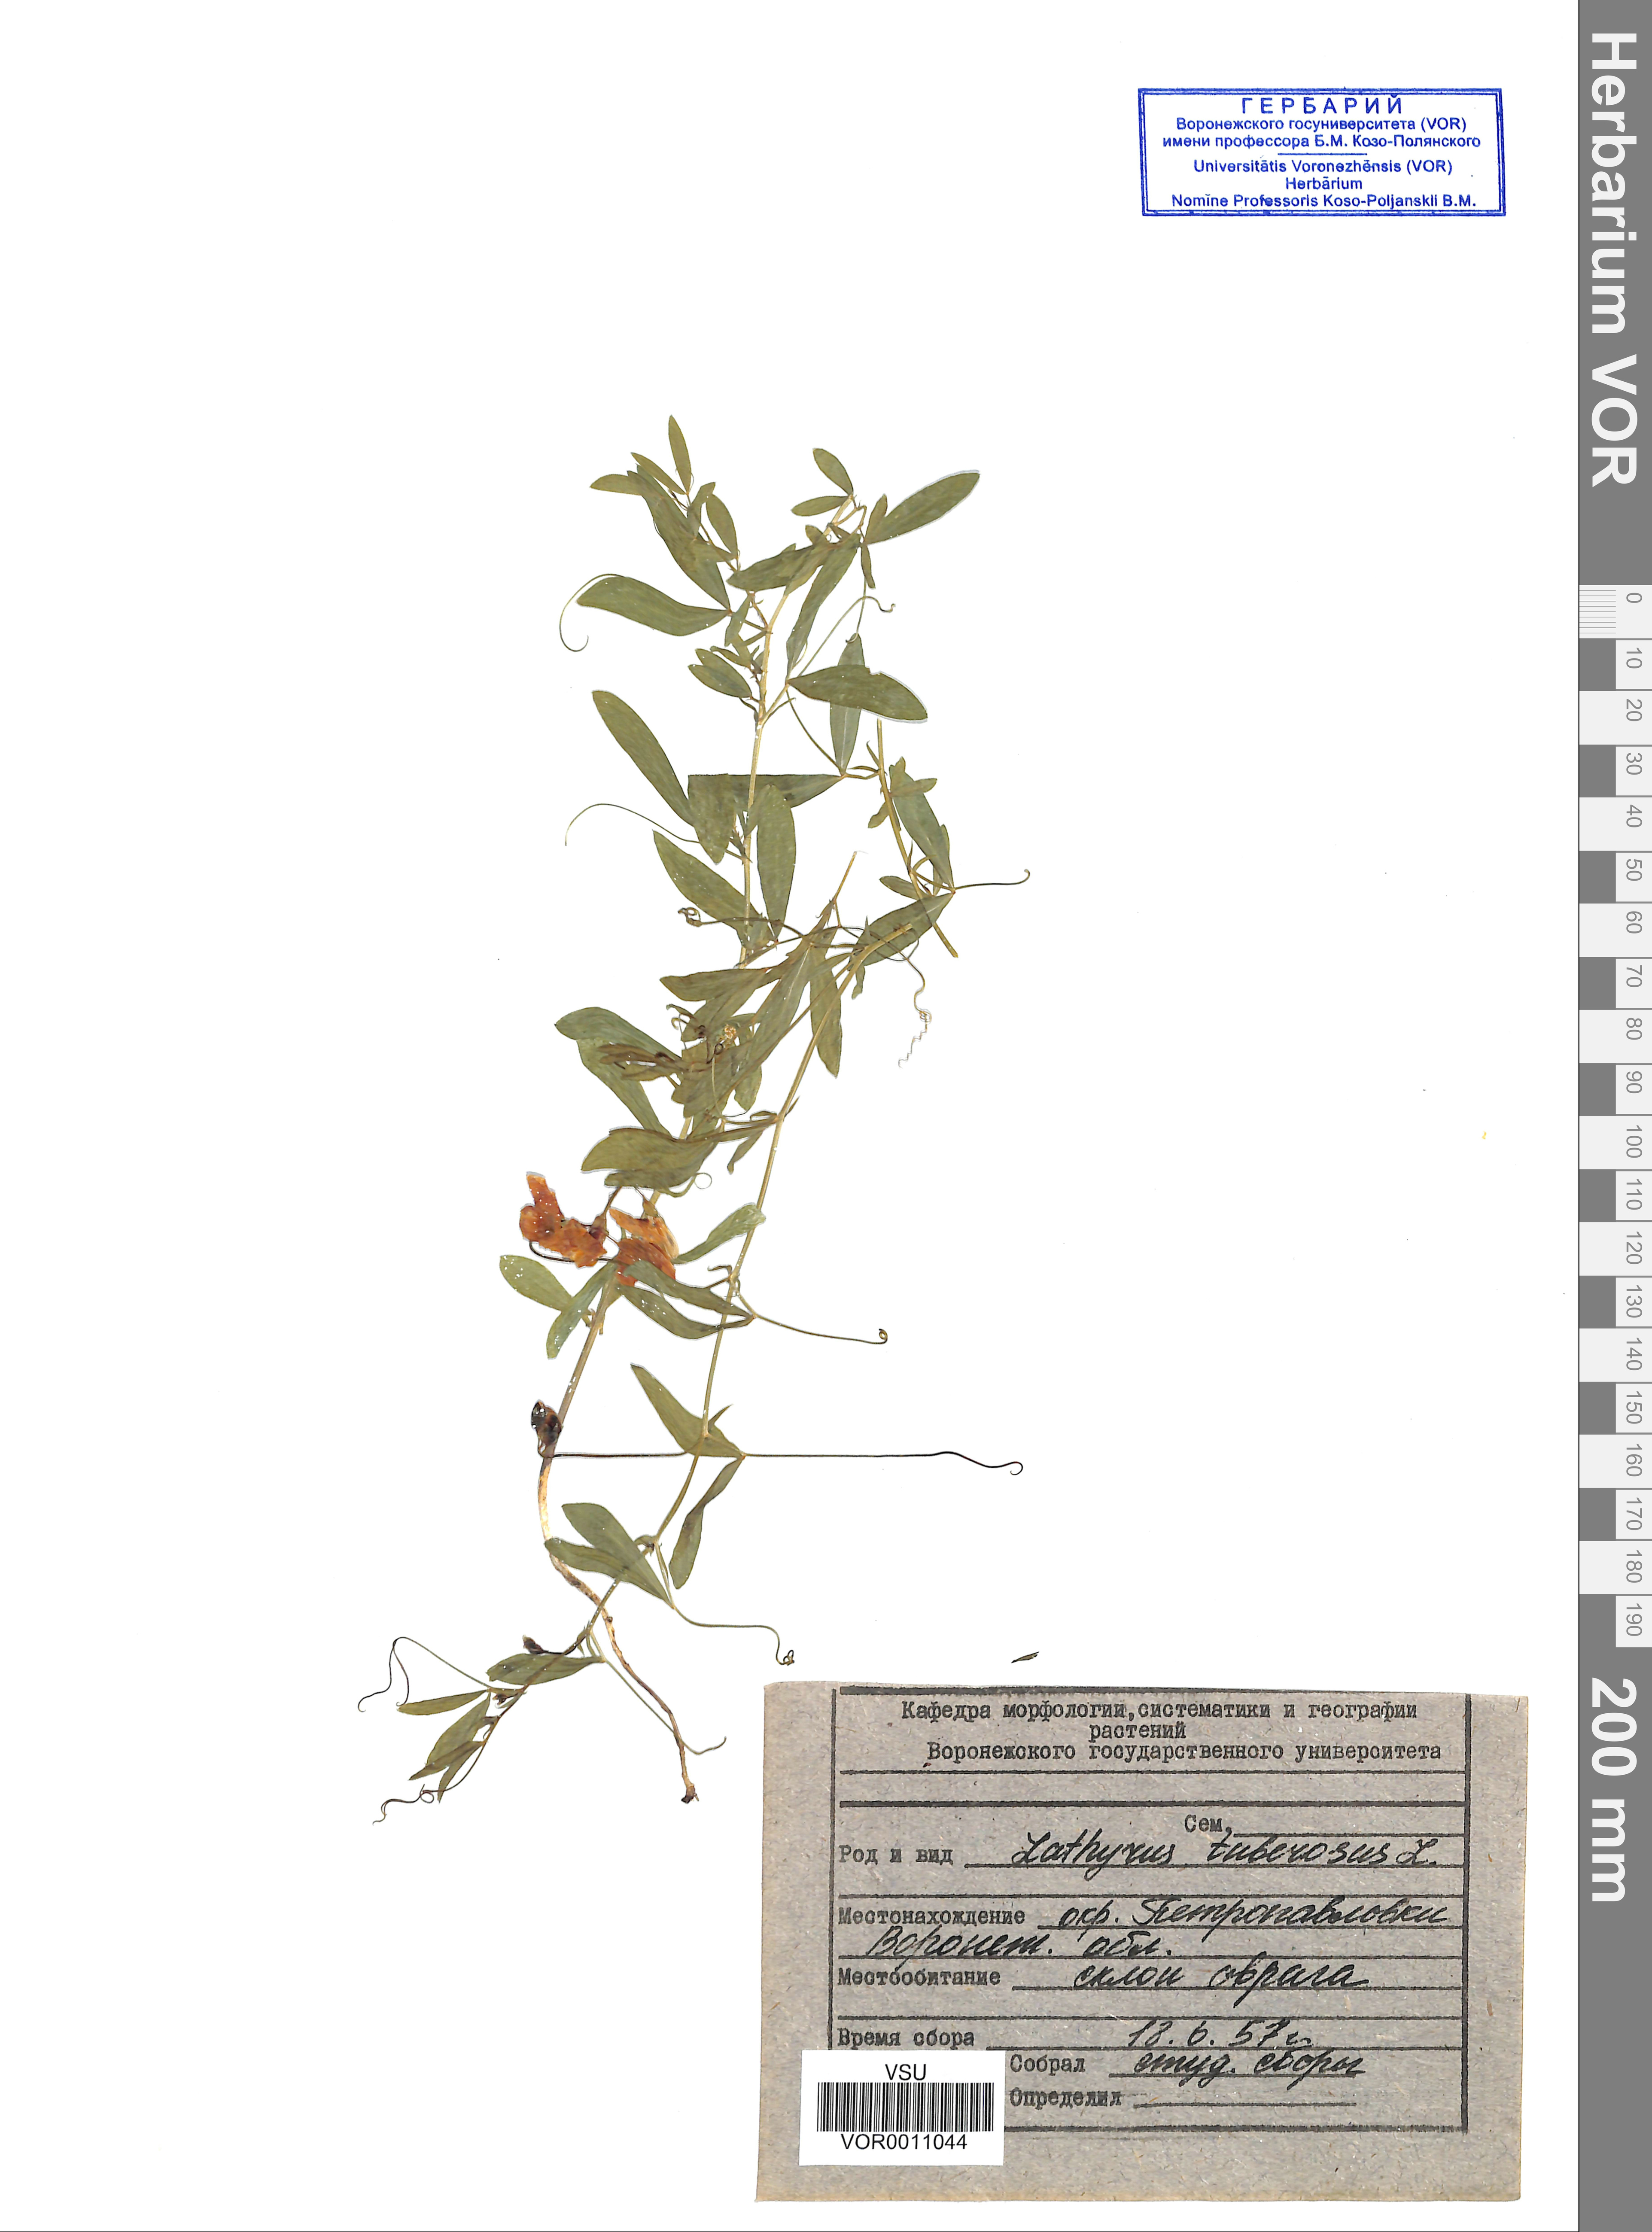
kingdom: Plantae
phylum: Tracheophyta
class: Magnoliopsida
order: Fabales
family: Fabaceae
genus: Lathyrus
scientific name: Lathyrus tuberosus
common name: Tuberous pea
